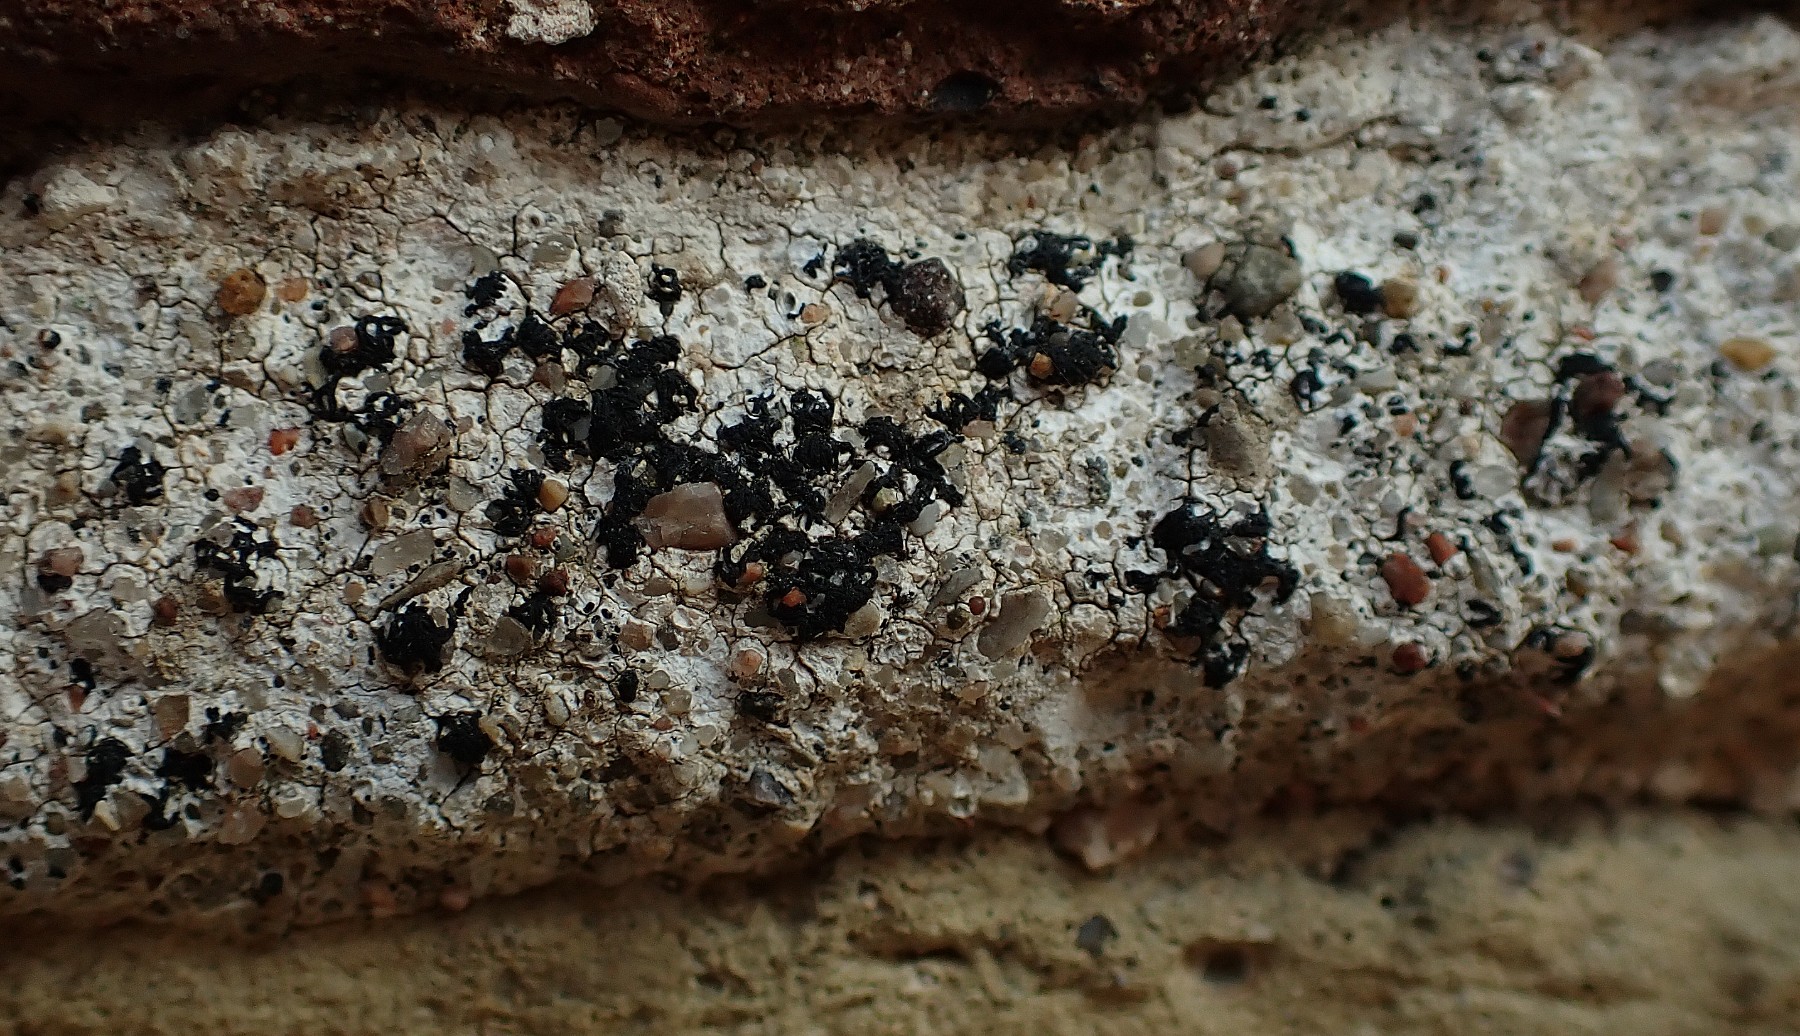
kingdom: Fungi
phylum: Ascomycota
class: Arthoniomycetes
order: Arthoniales
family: Arthoniaceae
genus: Arthonia
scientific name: Arthonia calcarea
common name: kalk-bogstavlav
